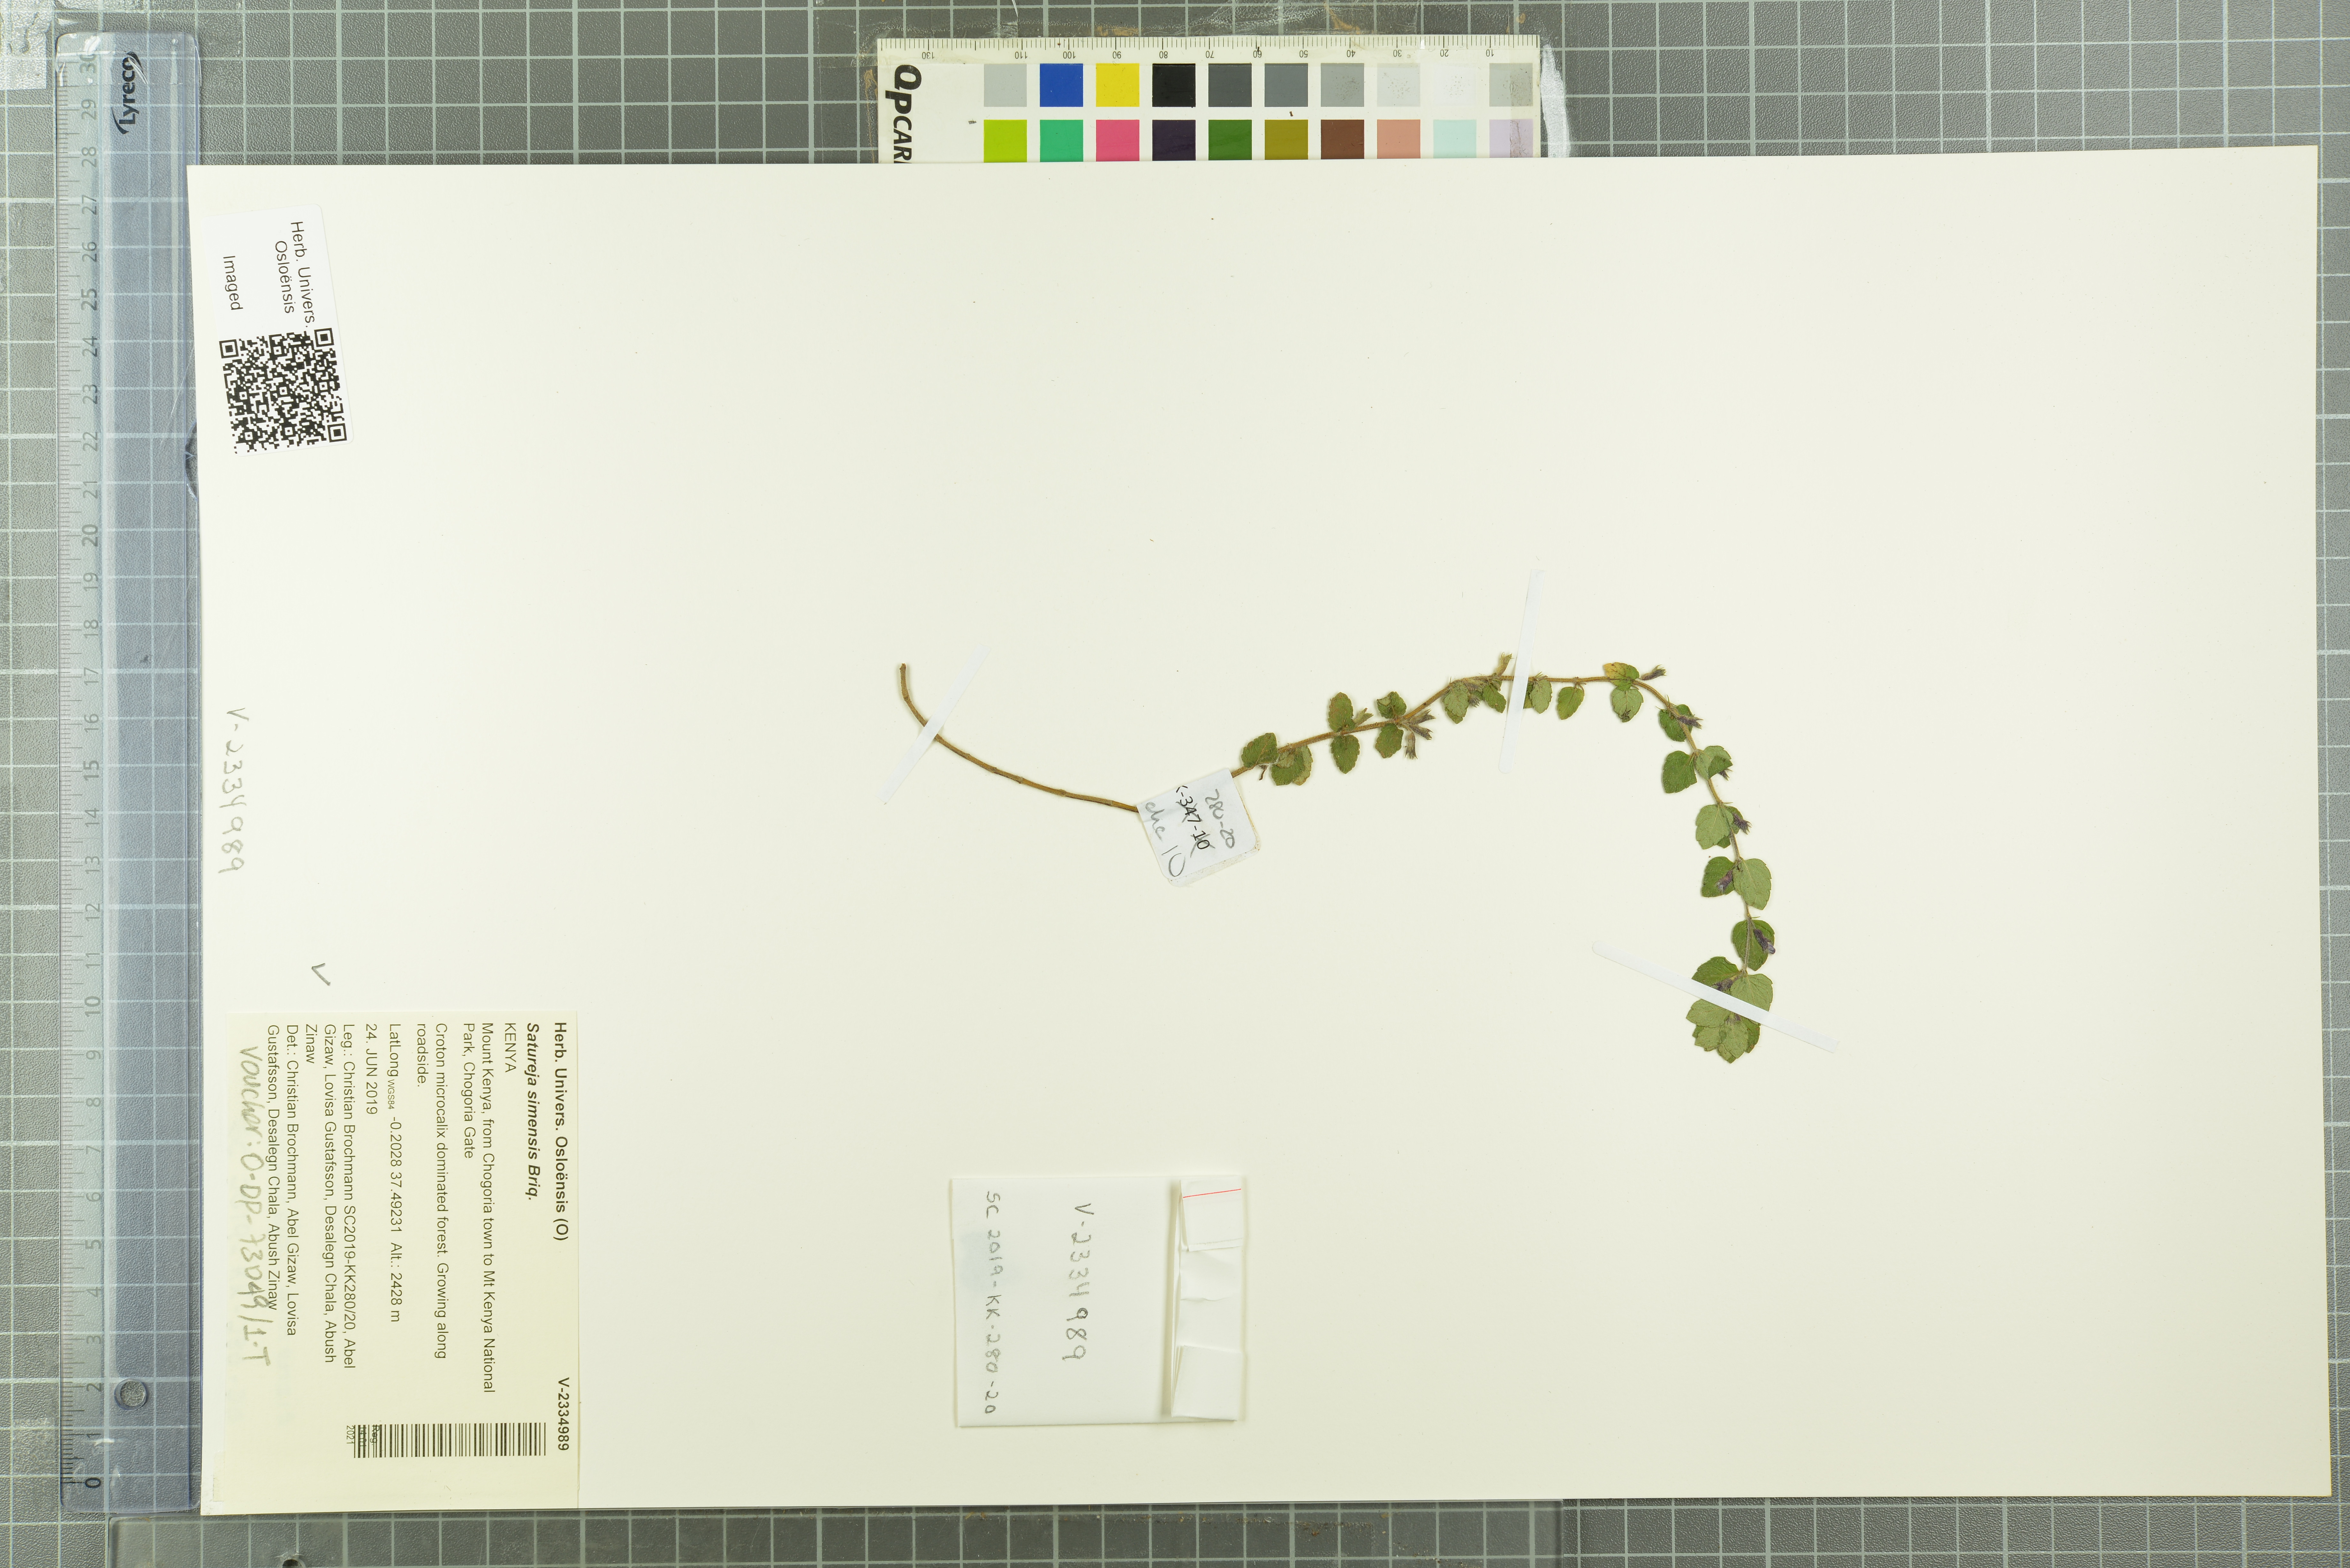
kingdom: Plantae
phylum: Tracheophyta
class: Magnoliopsida
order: Lamiales
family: Lamiaceae
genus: Clinopodium
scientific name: Clinopodium simense
